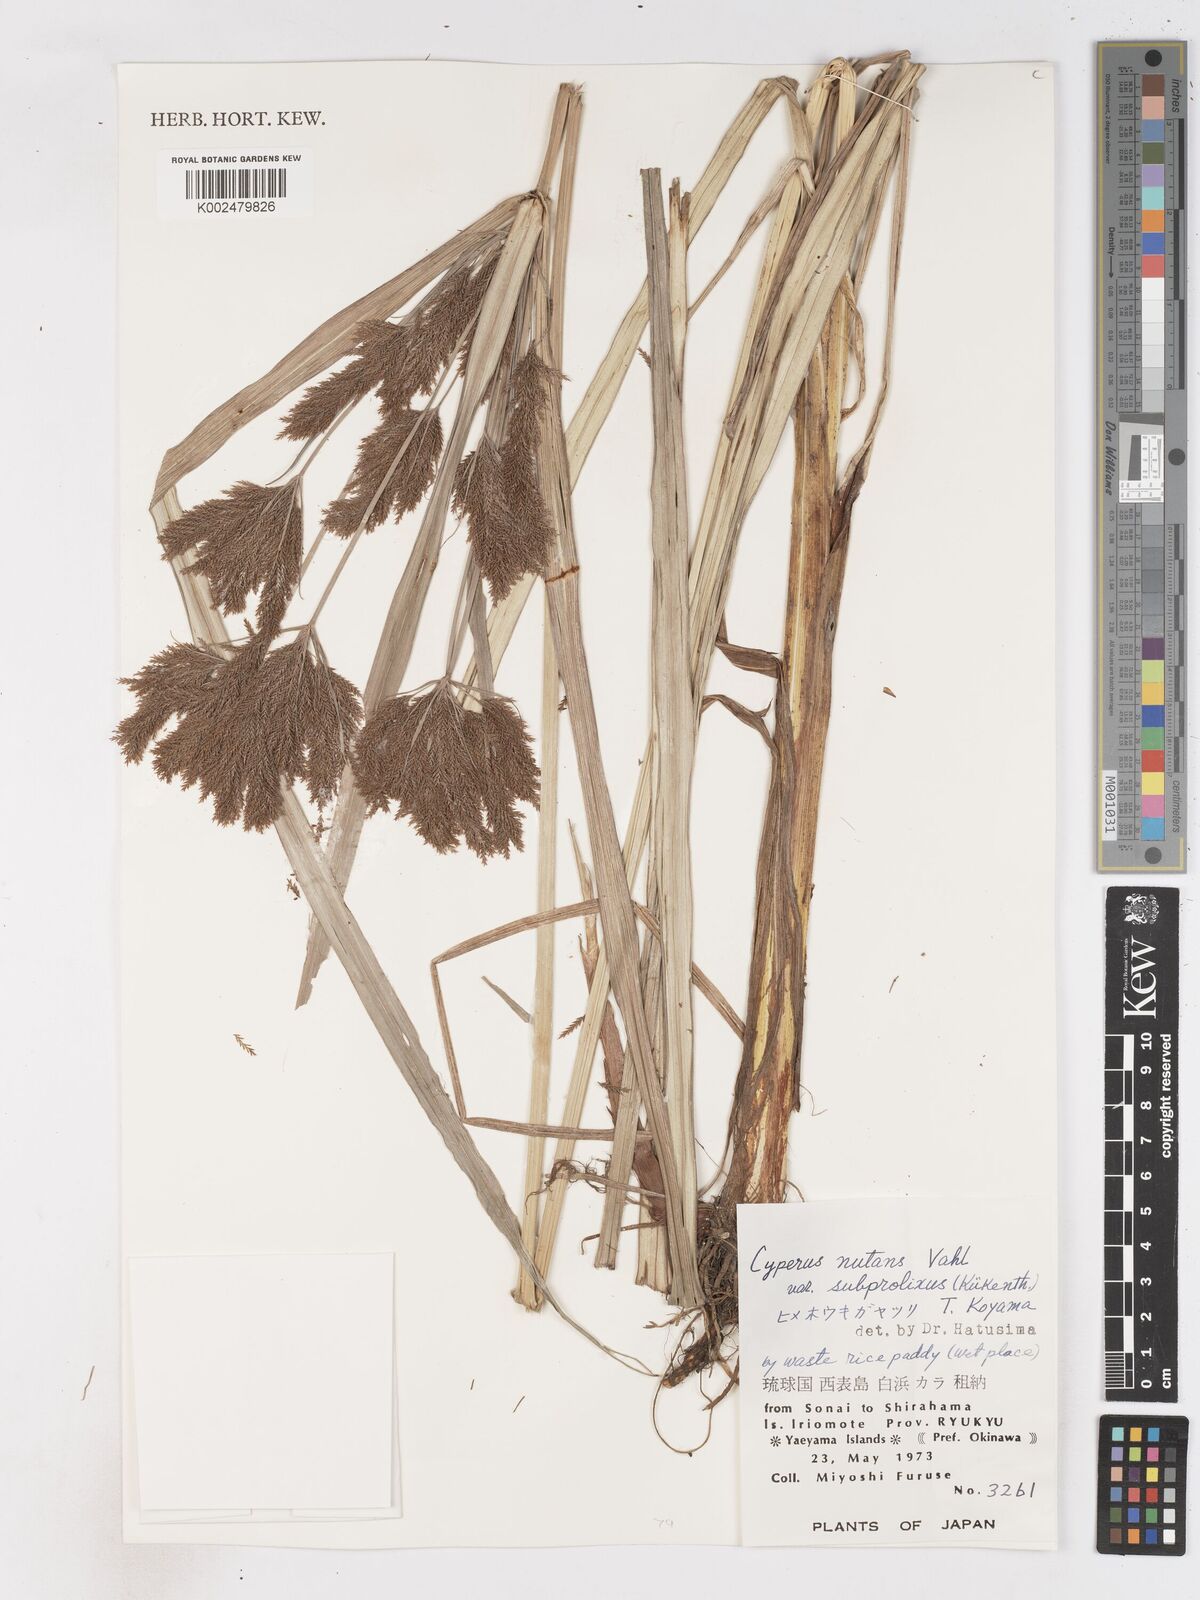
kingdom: Plantae
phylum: Tracheophyta
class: Liliopsida
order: Poales
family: Cyperaceae
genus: Cyperus
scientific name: Cyperus nutans
